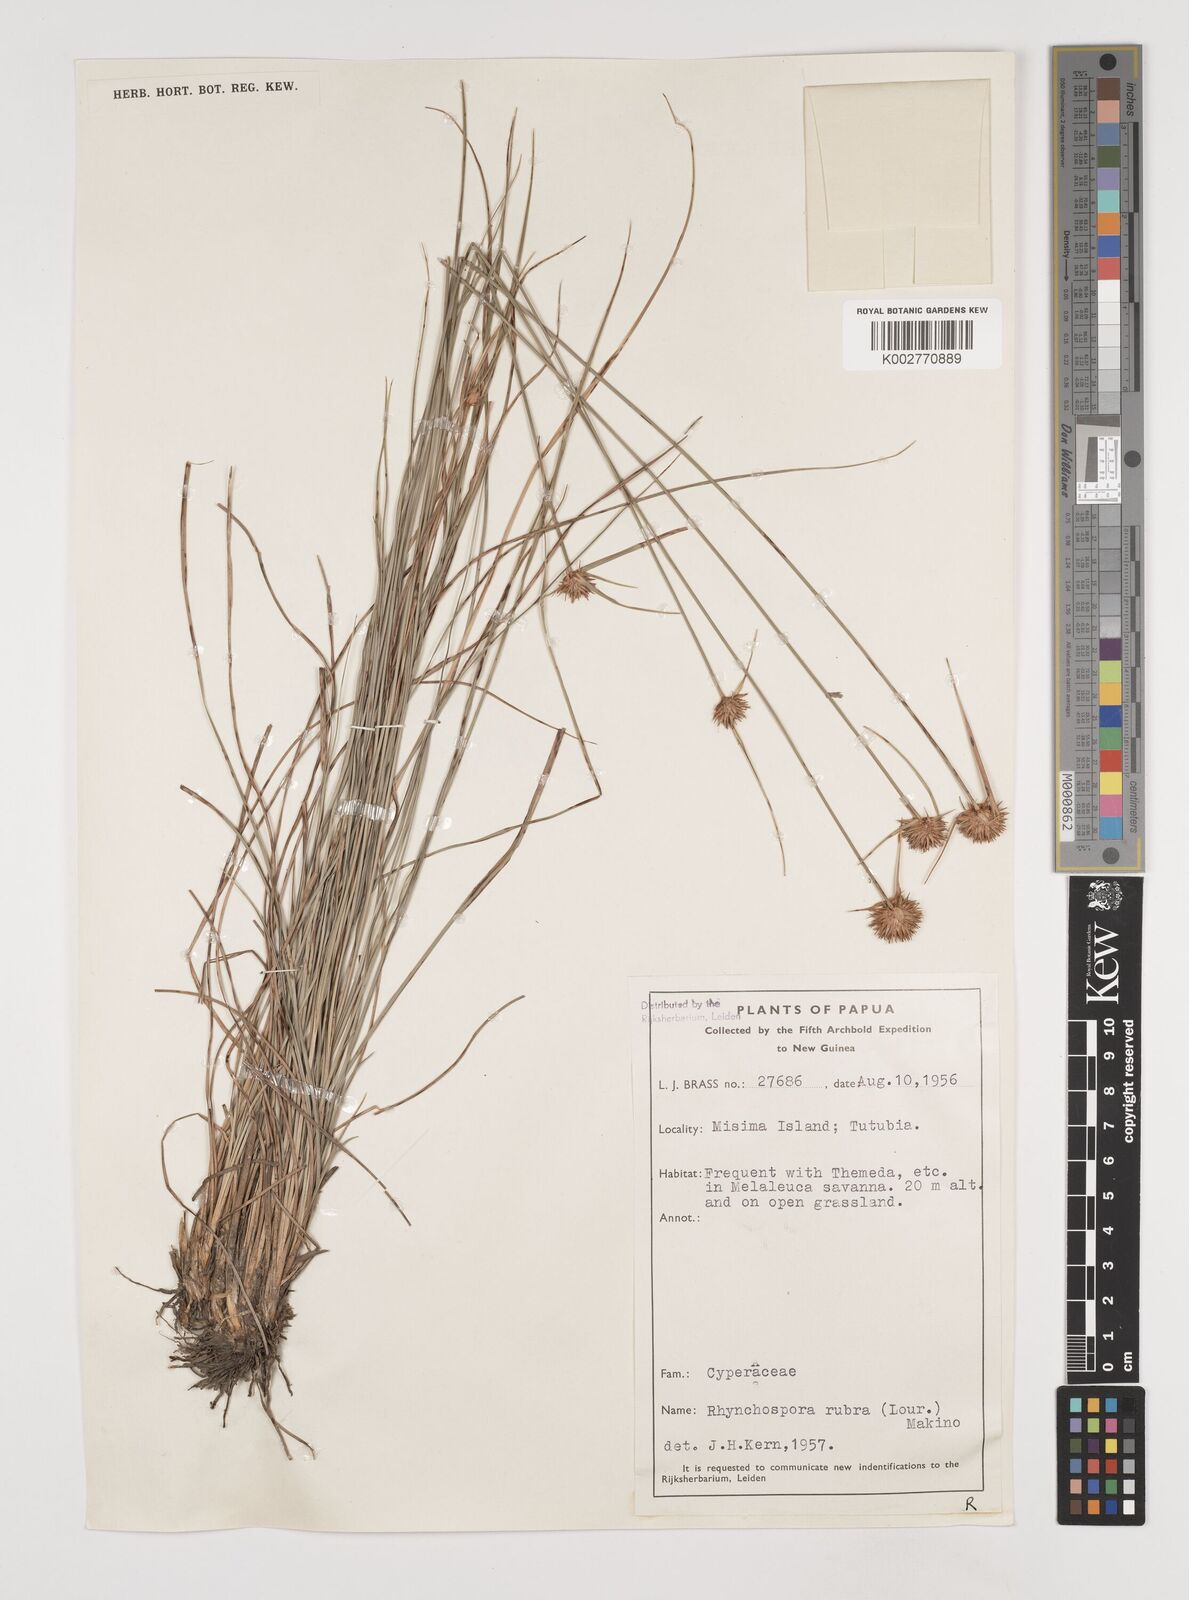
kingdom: Plantae
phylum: Tracheophyta
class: Liliopsida
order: Poales
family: Cyperaceae
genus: Rhynchospora
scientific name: Rhynchospora rubra
